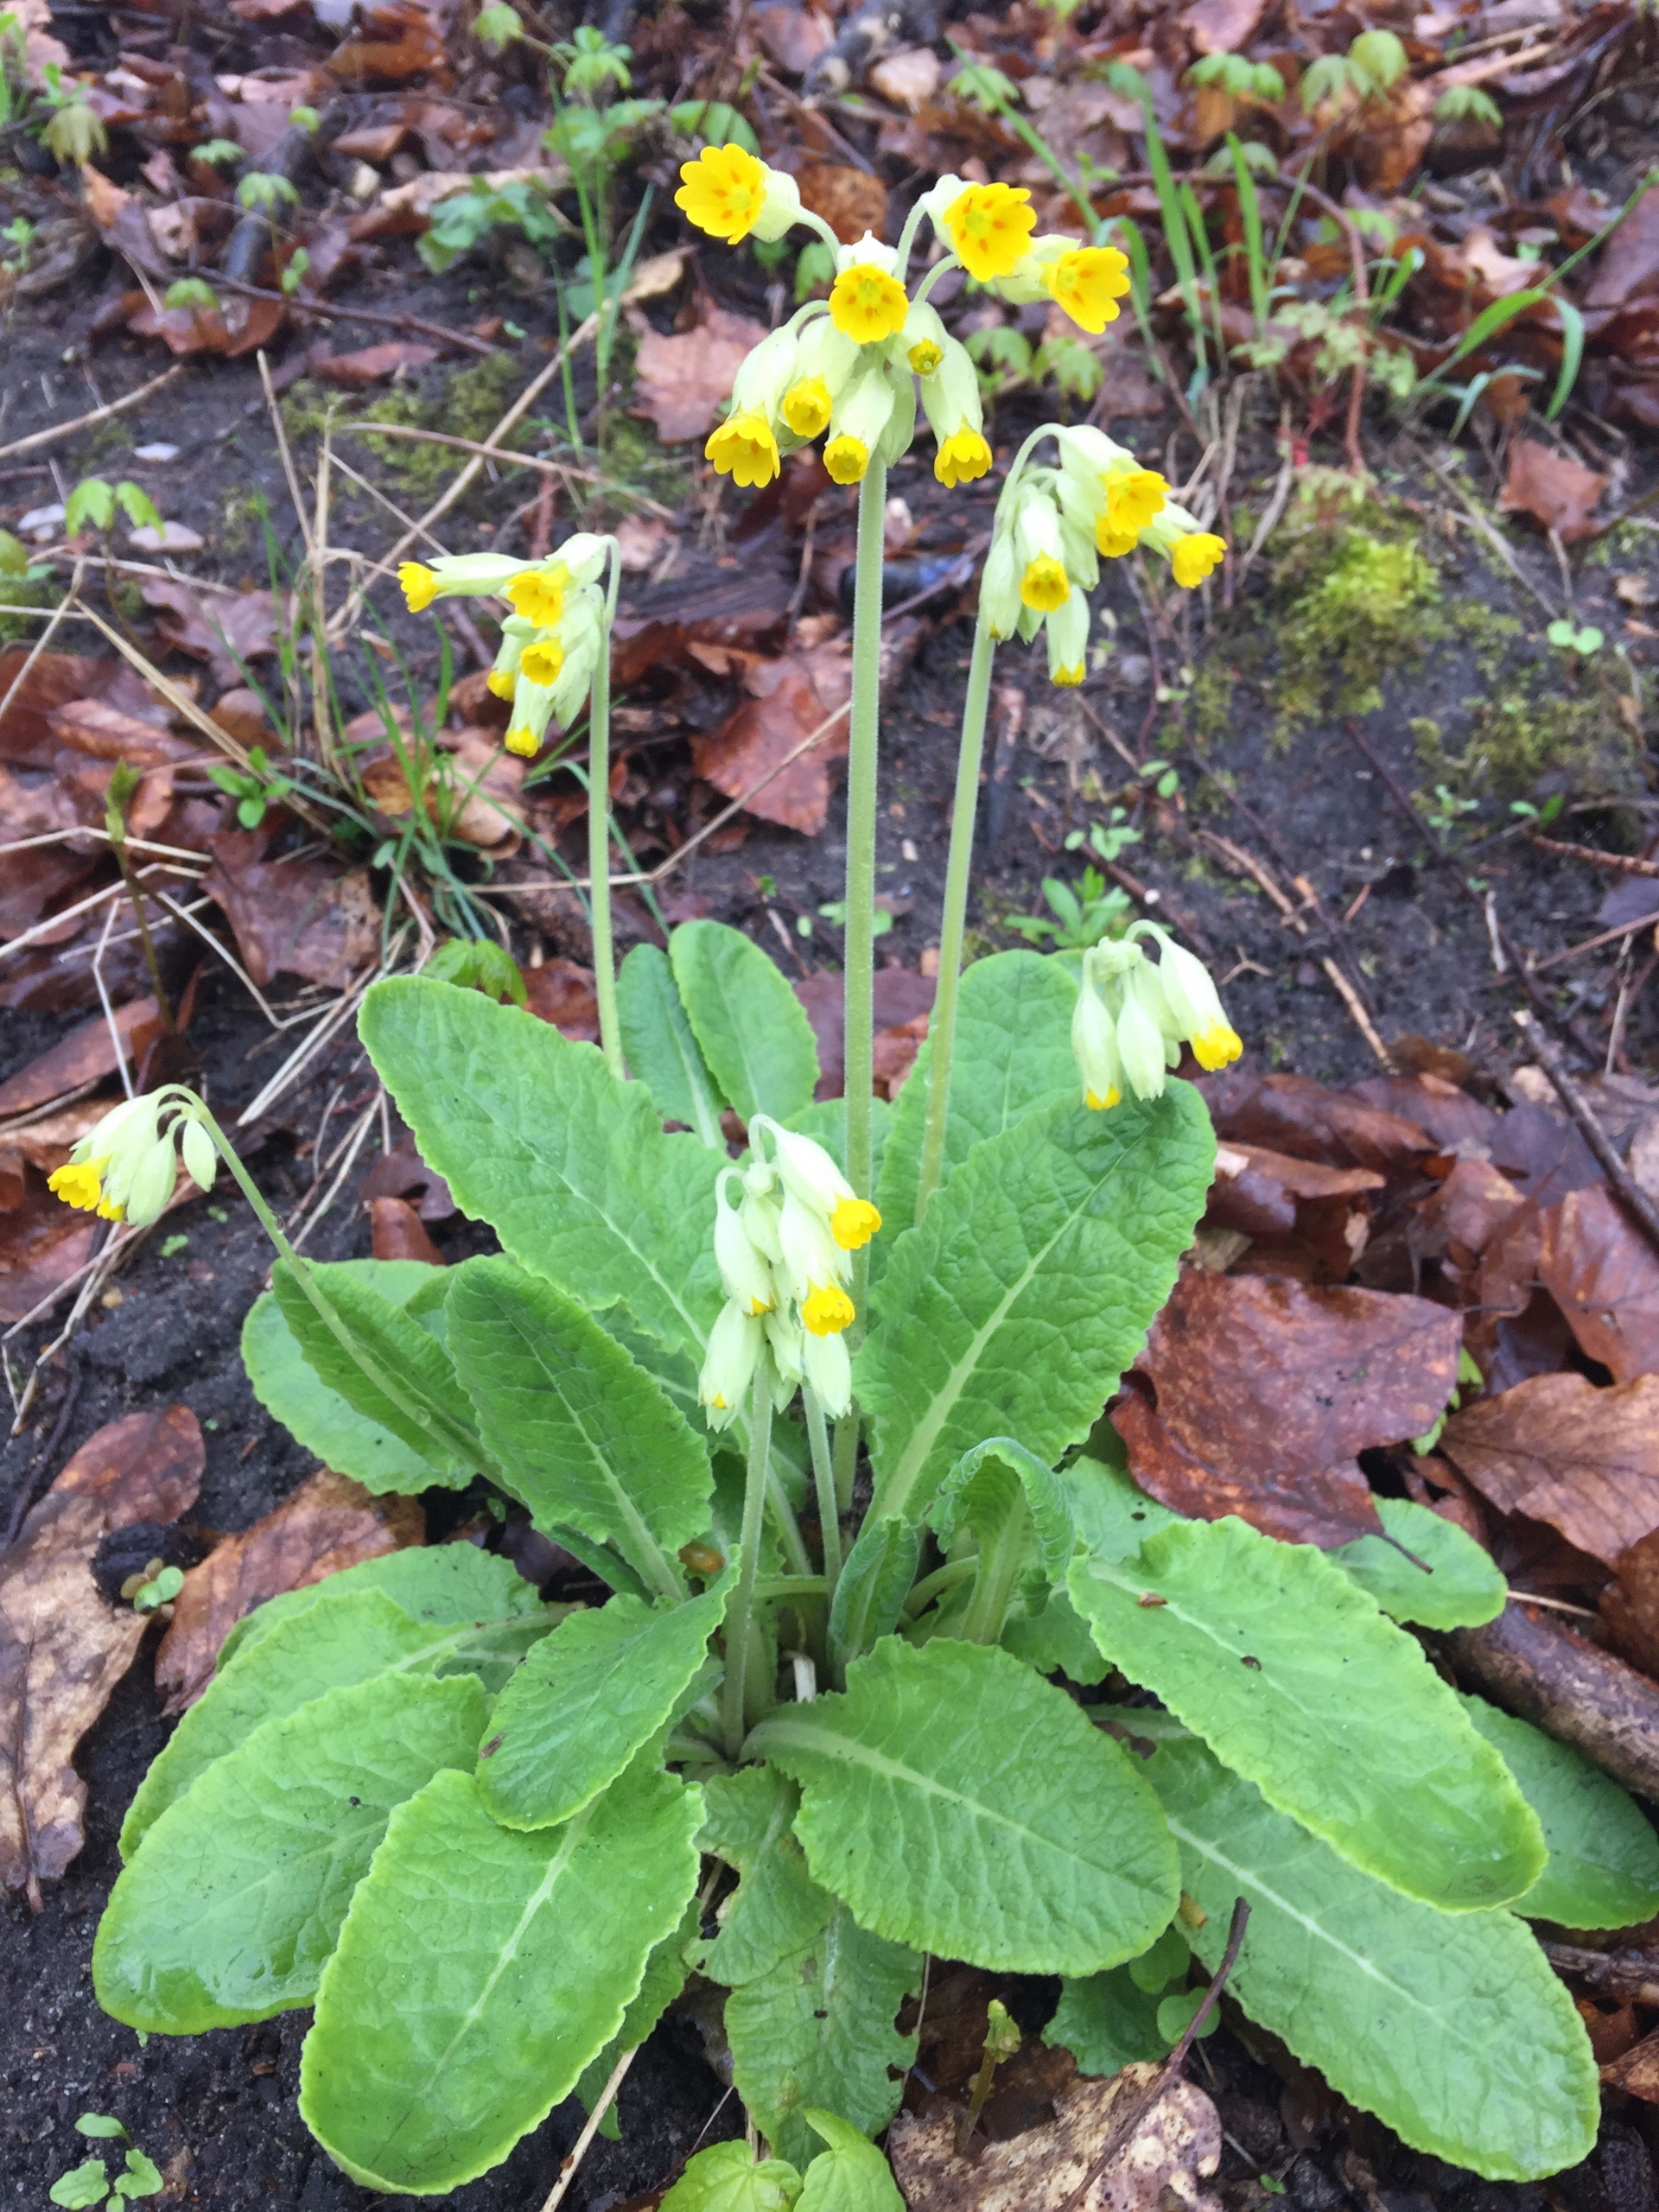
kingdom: Plantae
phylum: Tracheophyta
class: Magnoliopsida
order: Ericales
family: Primulaceae
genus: Primula
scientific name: Primula veris
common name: Hulkravet kodriver
